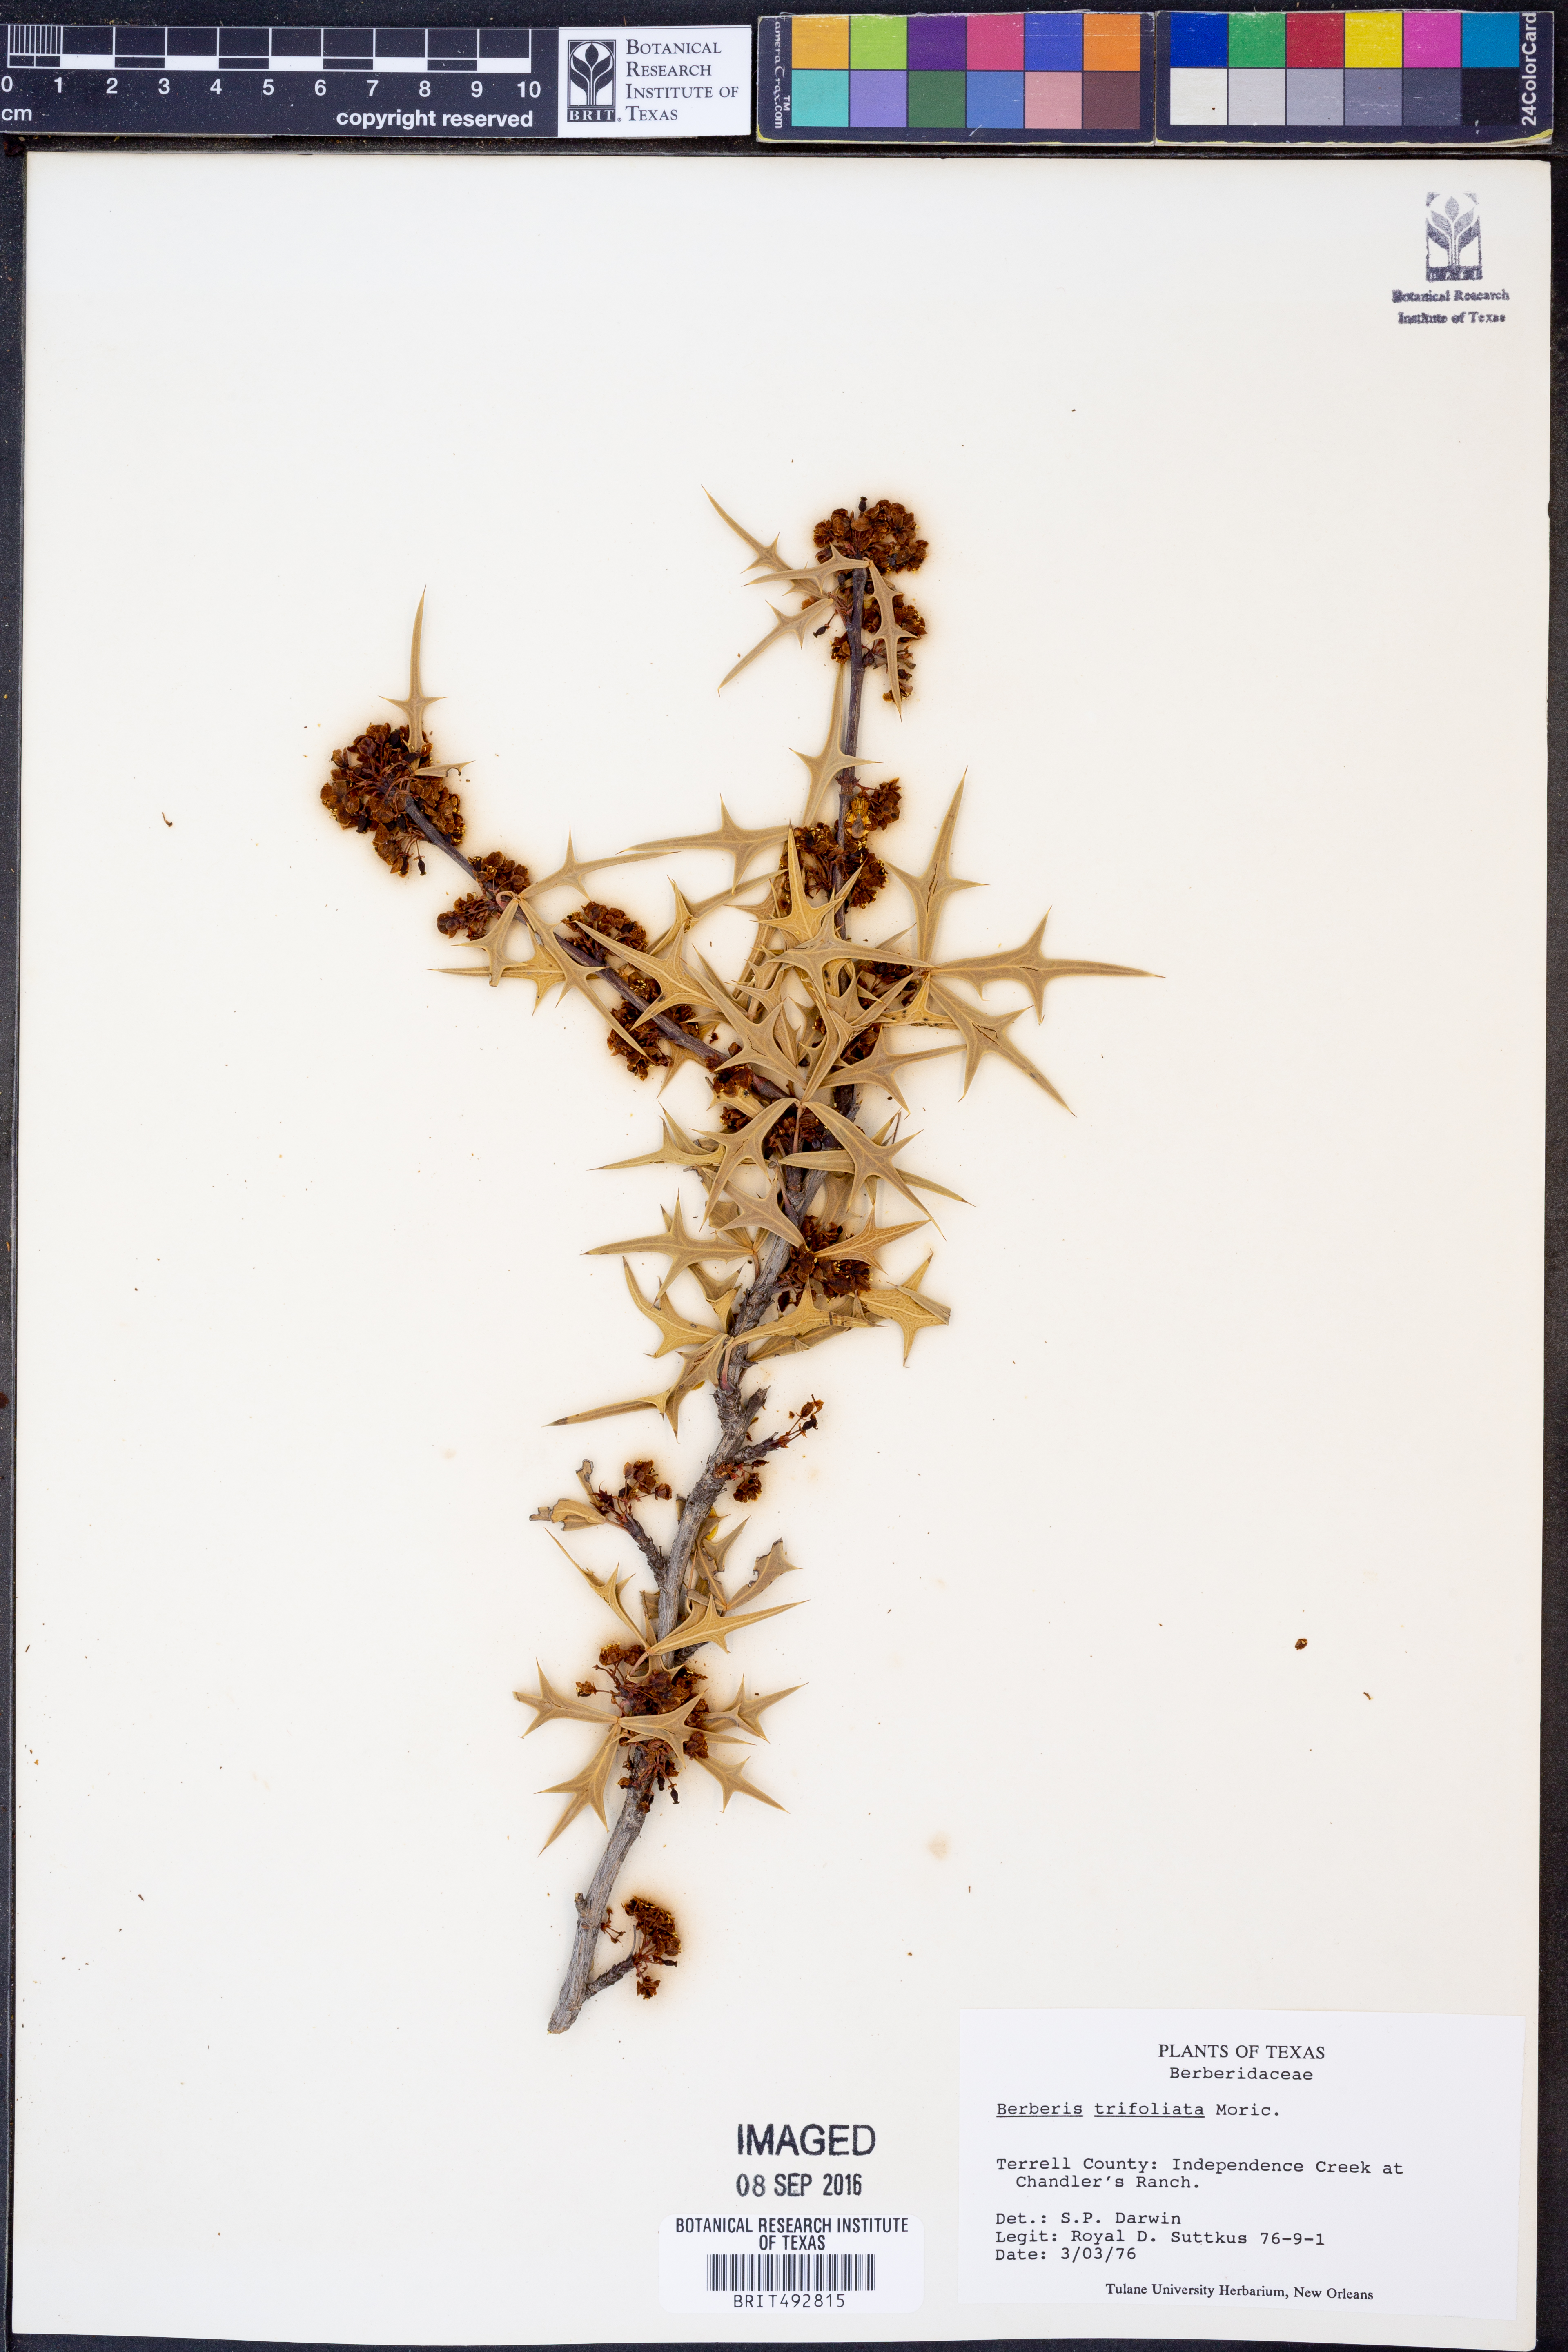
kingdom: Plantae
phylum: Tracheophyta
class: Magnoliopsida
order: Ranunculales
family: Berberidaceae
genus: Alloberberis
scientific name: Alloberberis fremontii
